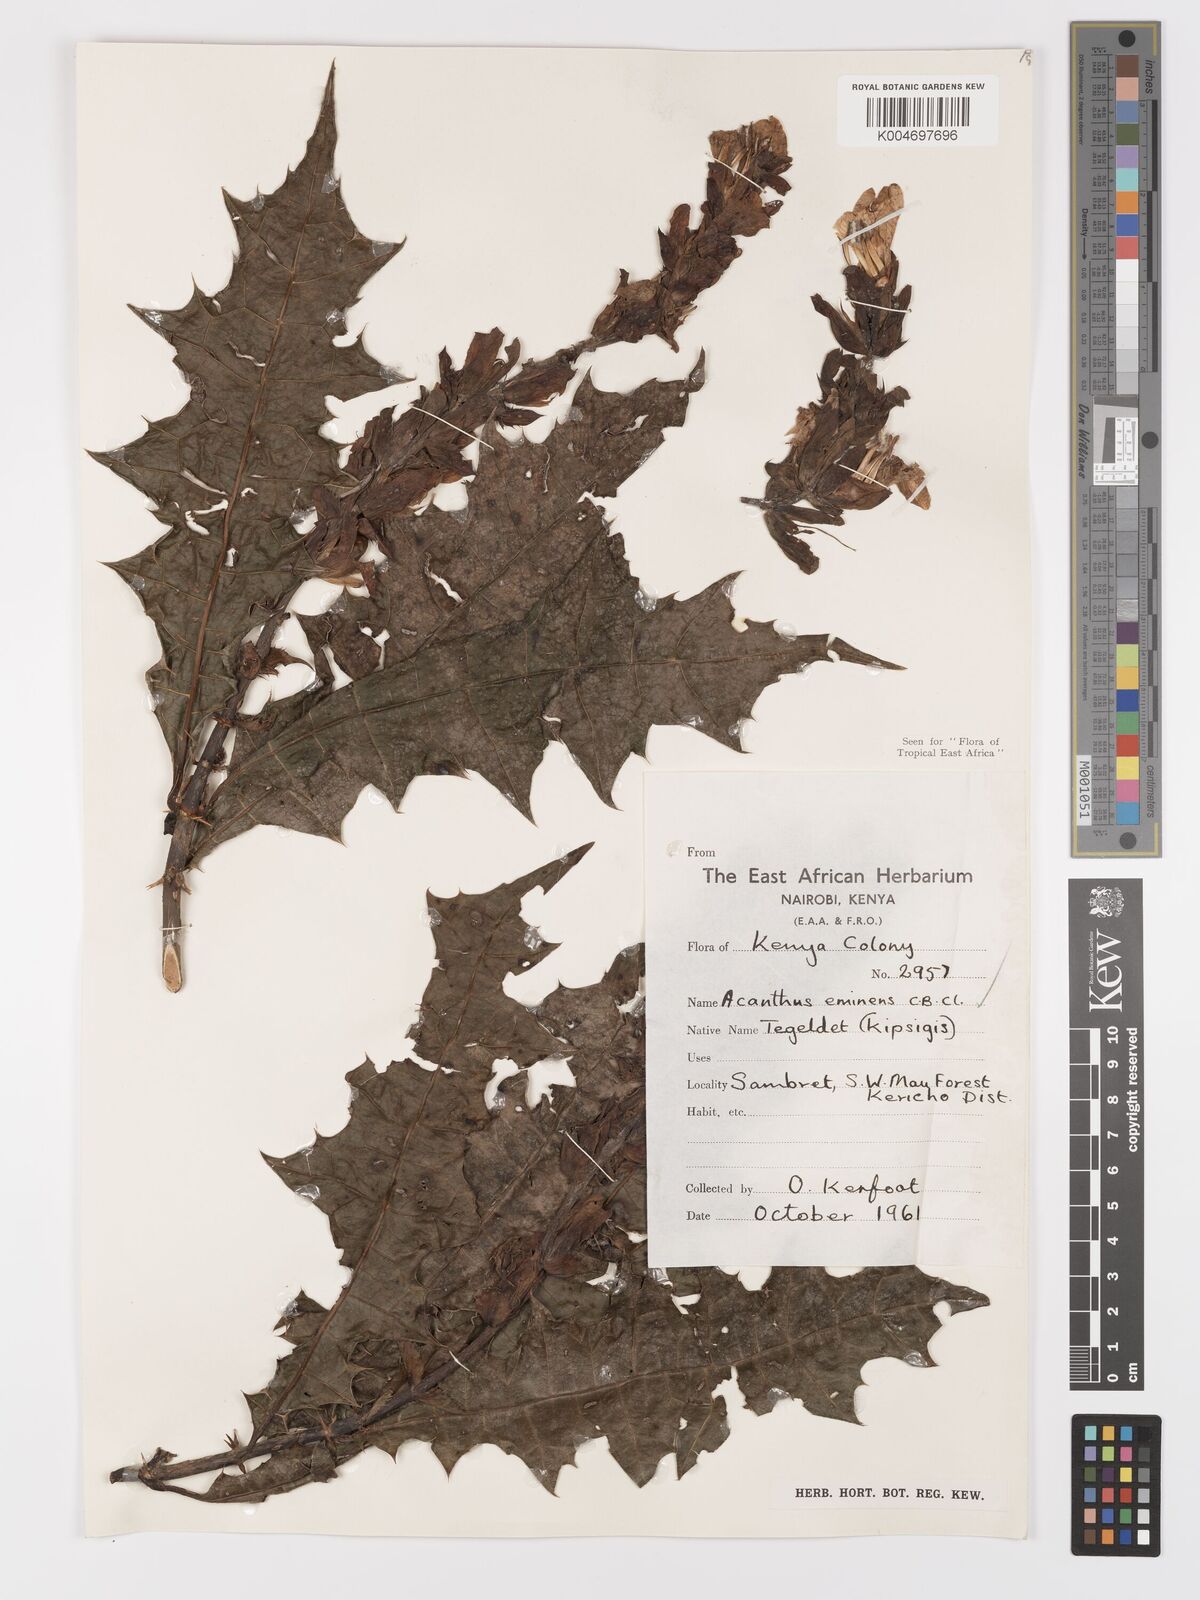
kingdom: Plantae
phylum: Tracheophyta
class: Magnoliopsida
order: Lamiales
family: Acanthaceae
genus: Acanthus
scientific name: Acanthus eminens
